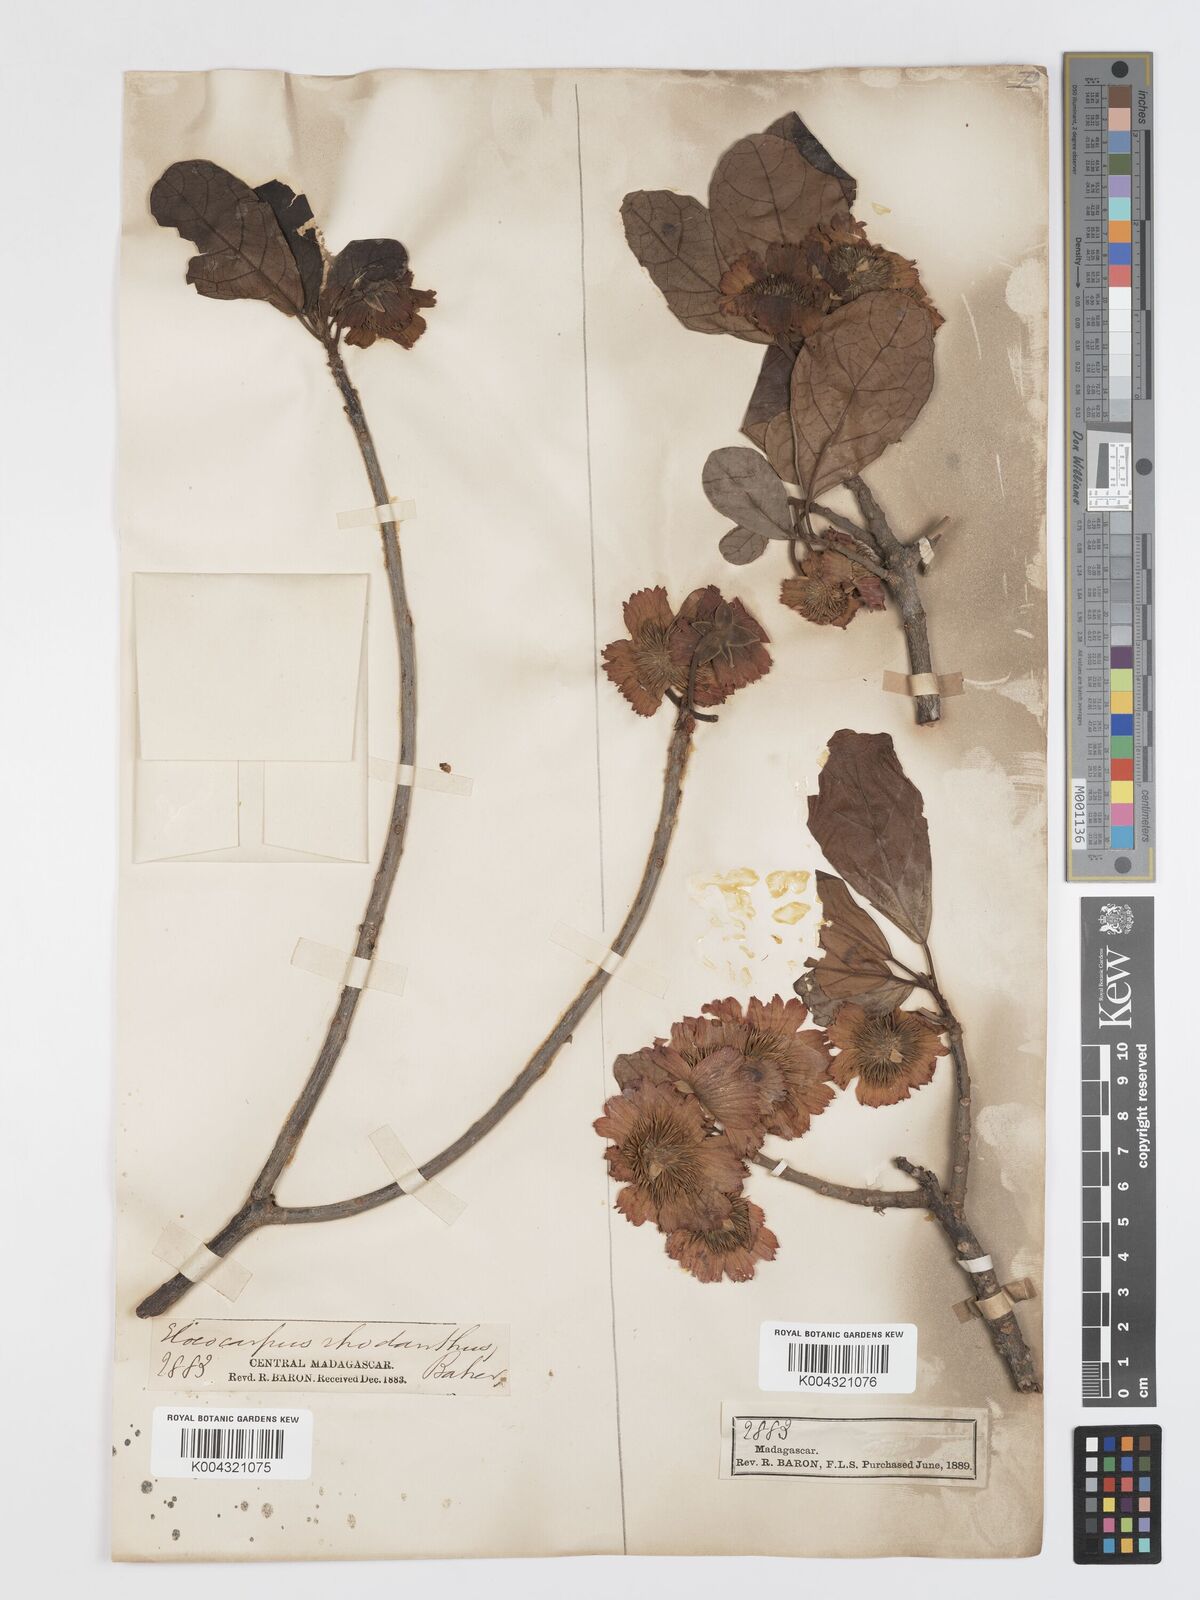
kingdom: Plantae
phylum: Tracheophyta
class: Magnoliopsida
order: Oxalidales
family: Elaeocarpaceae
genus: Sloanea
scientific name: Sloanea rhodantha
